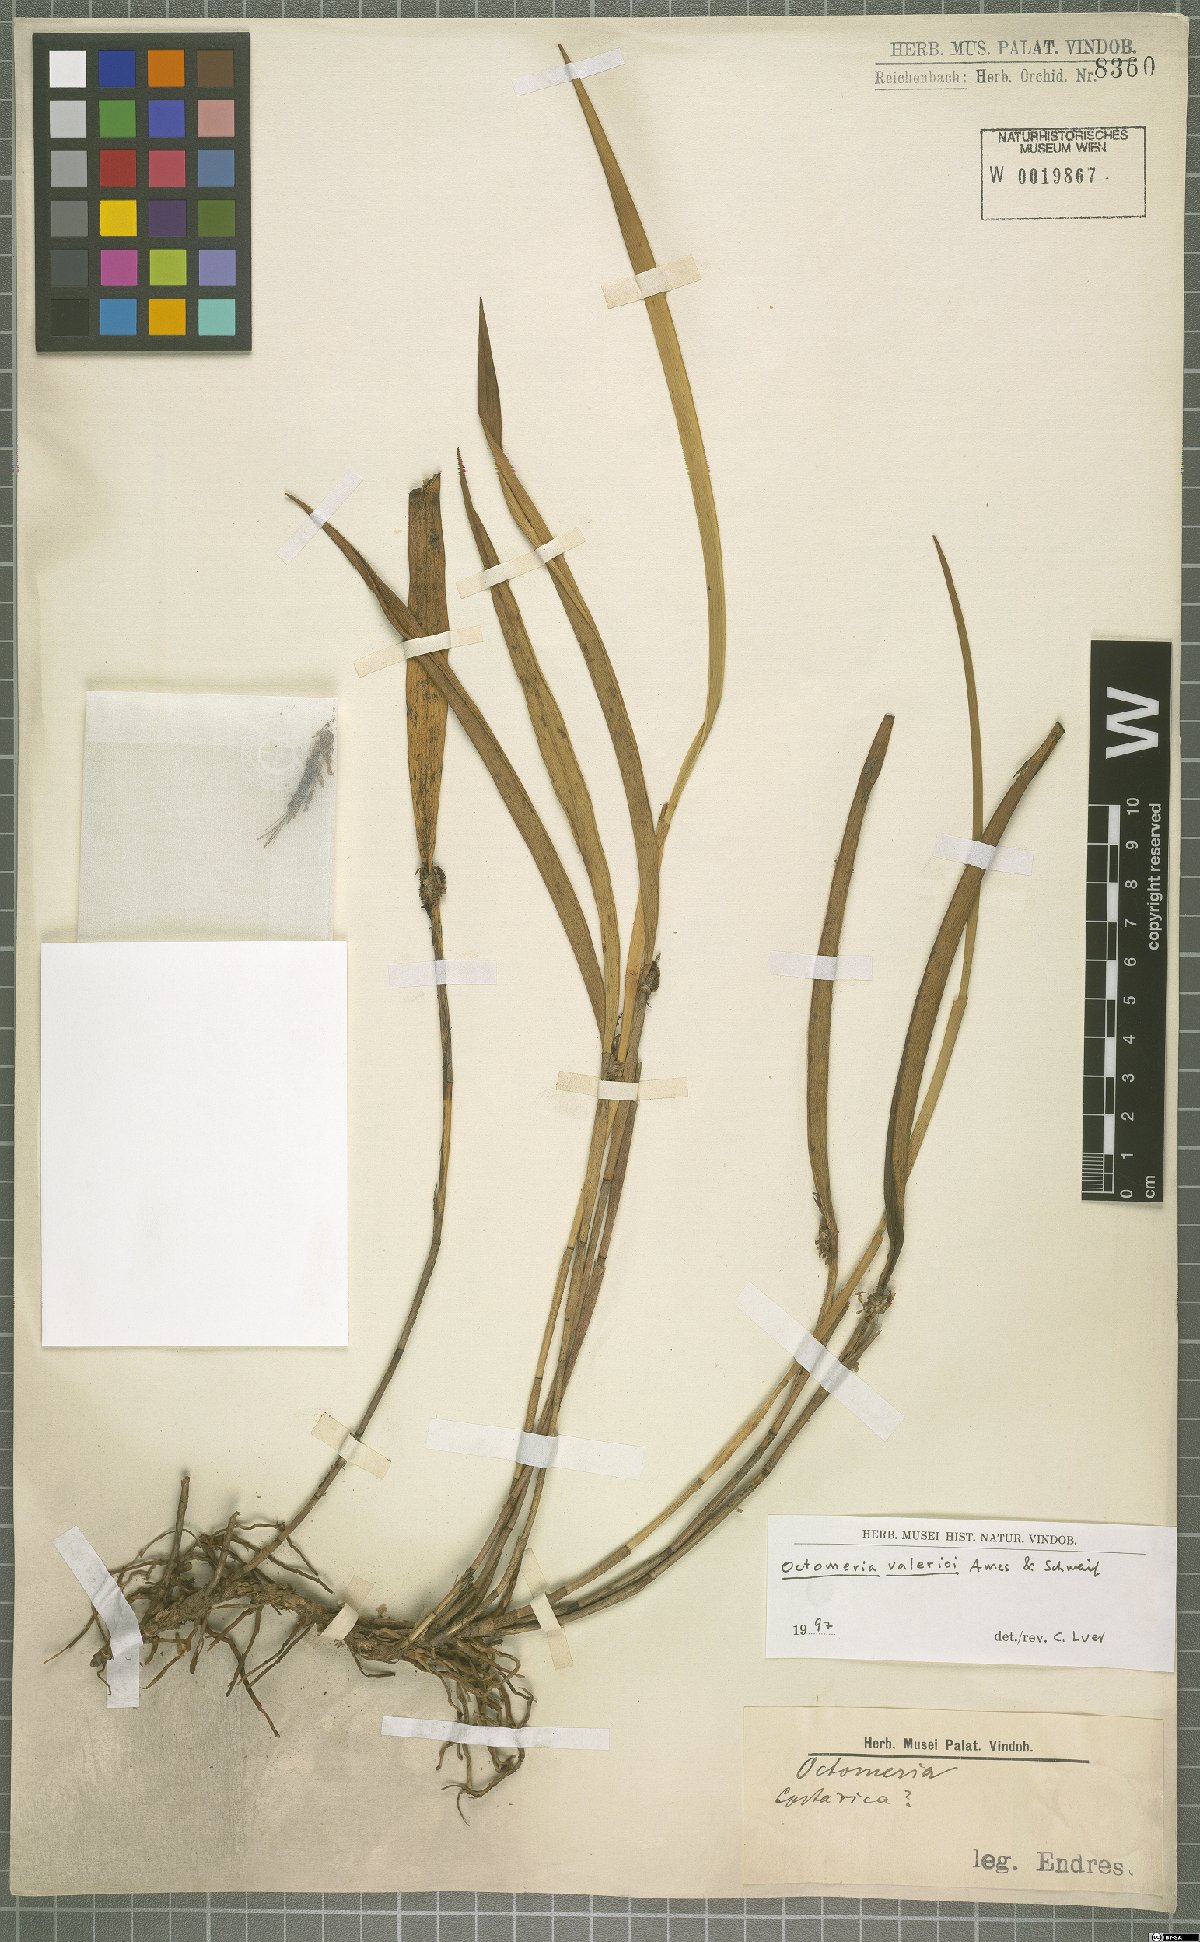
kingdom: Plantae
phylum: Tracheophyta
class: Liliopsida
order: Asparagales
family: Orchidaceae
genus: Octomeria
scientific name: Octomeria costaricensis
